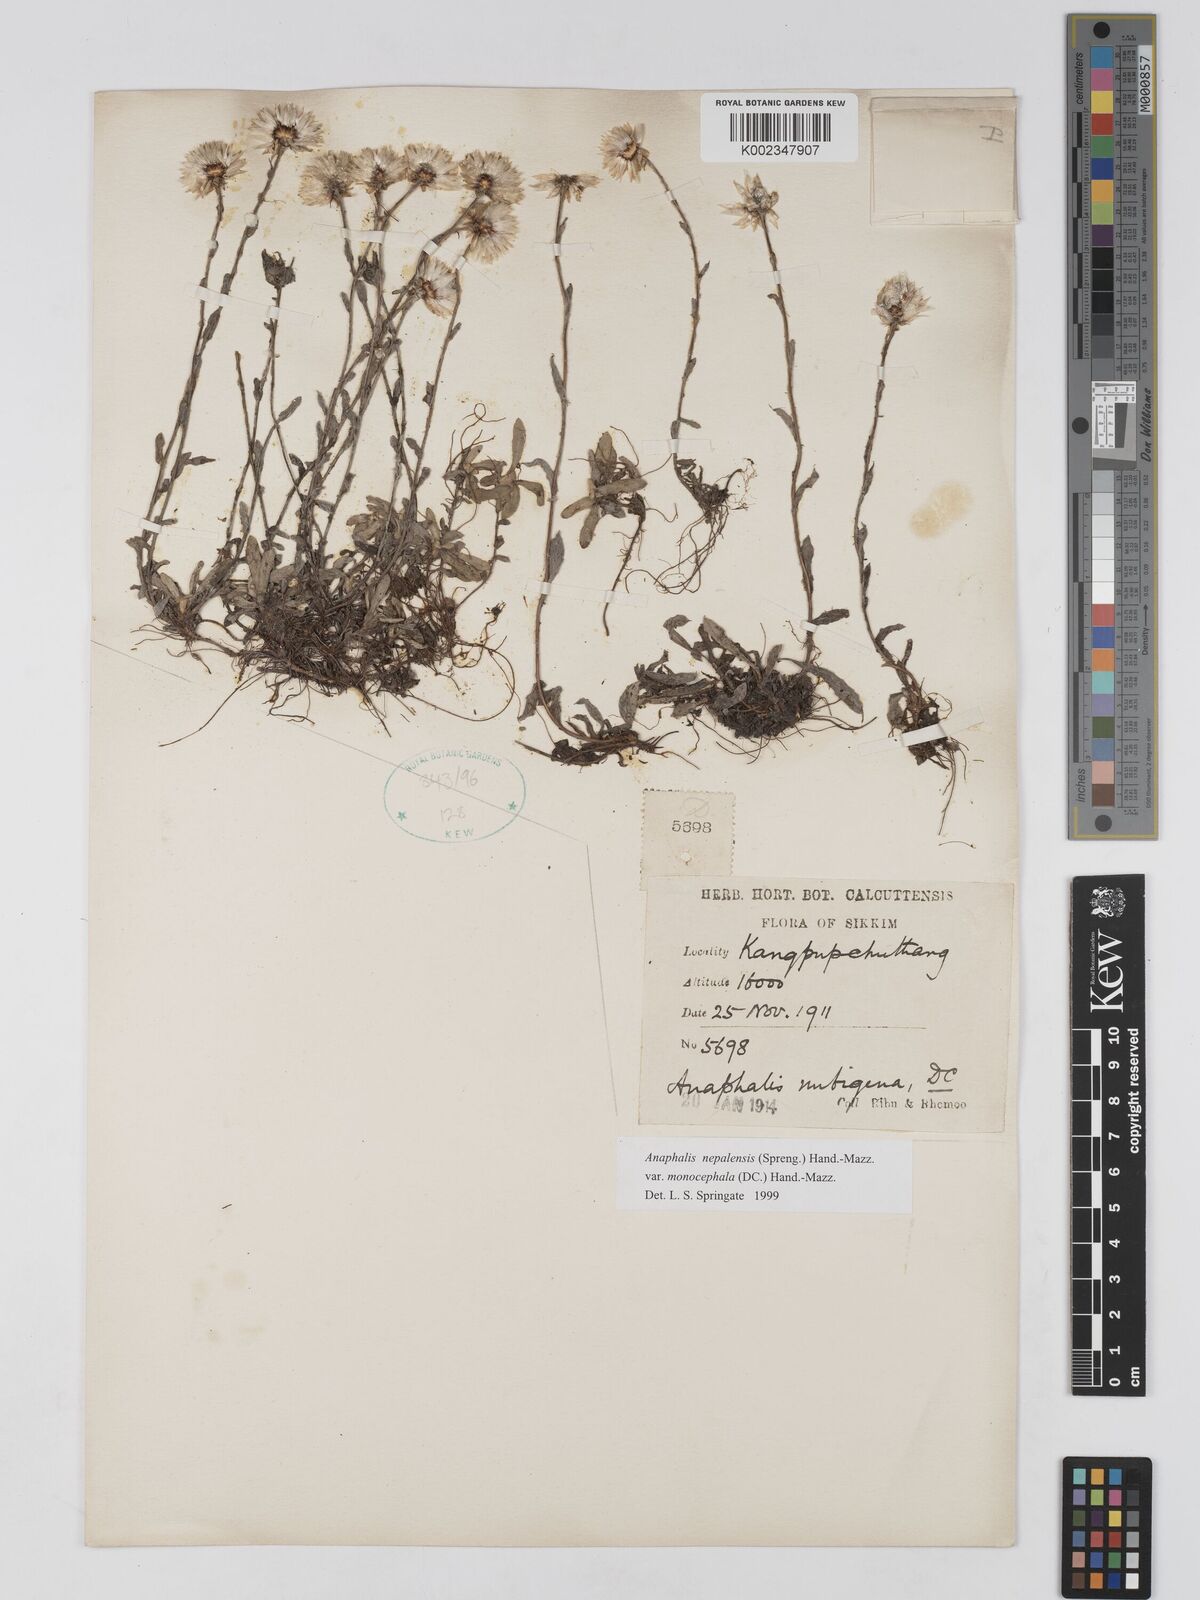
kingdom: Plantae
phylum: Tracheophyta
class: Magnoliopsida
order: Asterales
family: Asteraceae
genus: Anaphalis
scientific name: Anaphalis nepalensis
